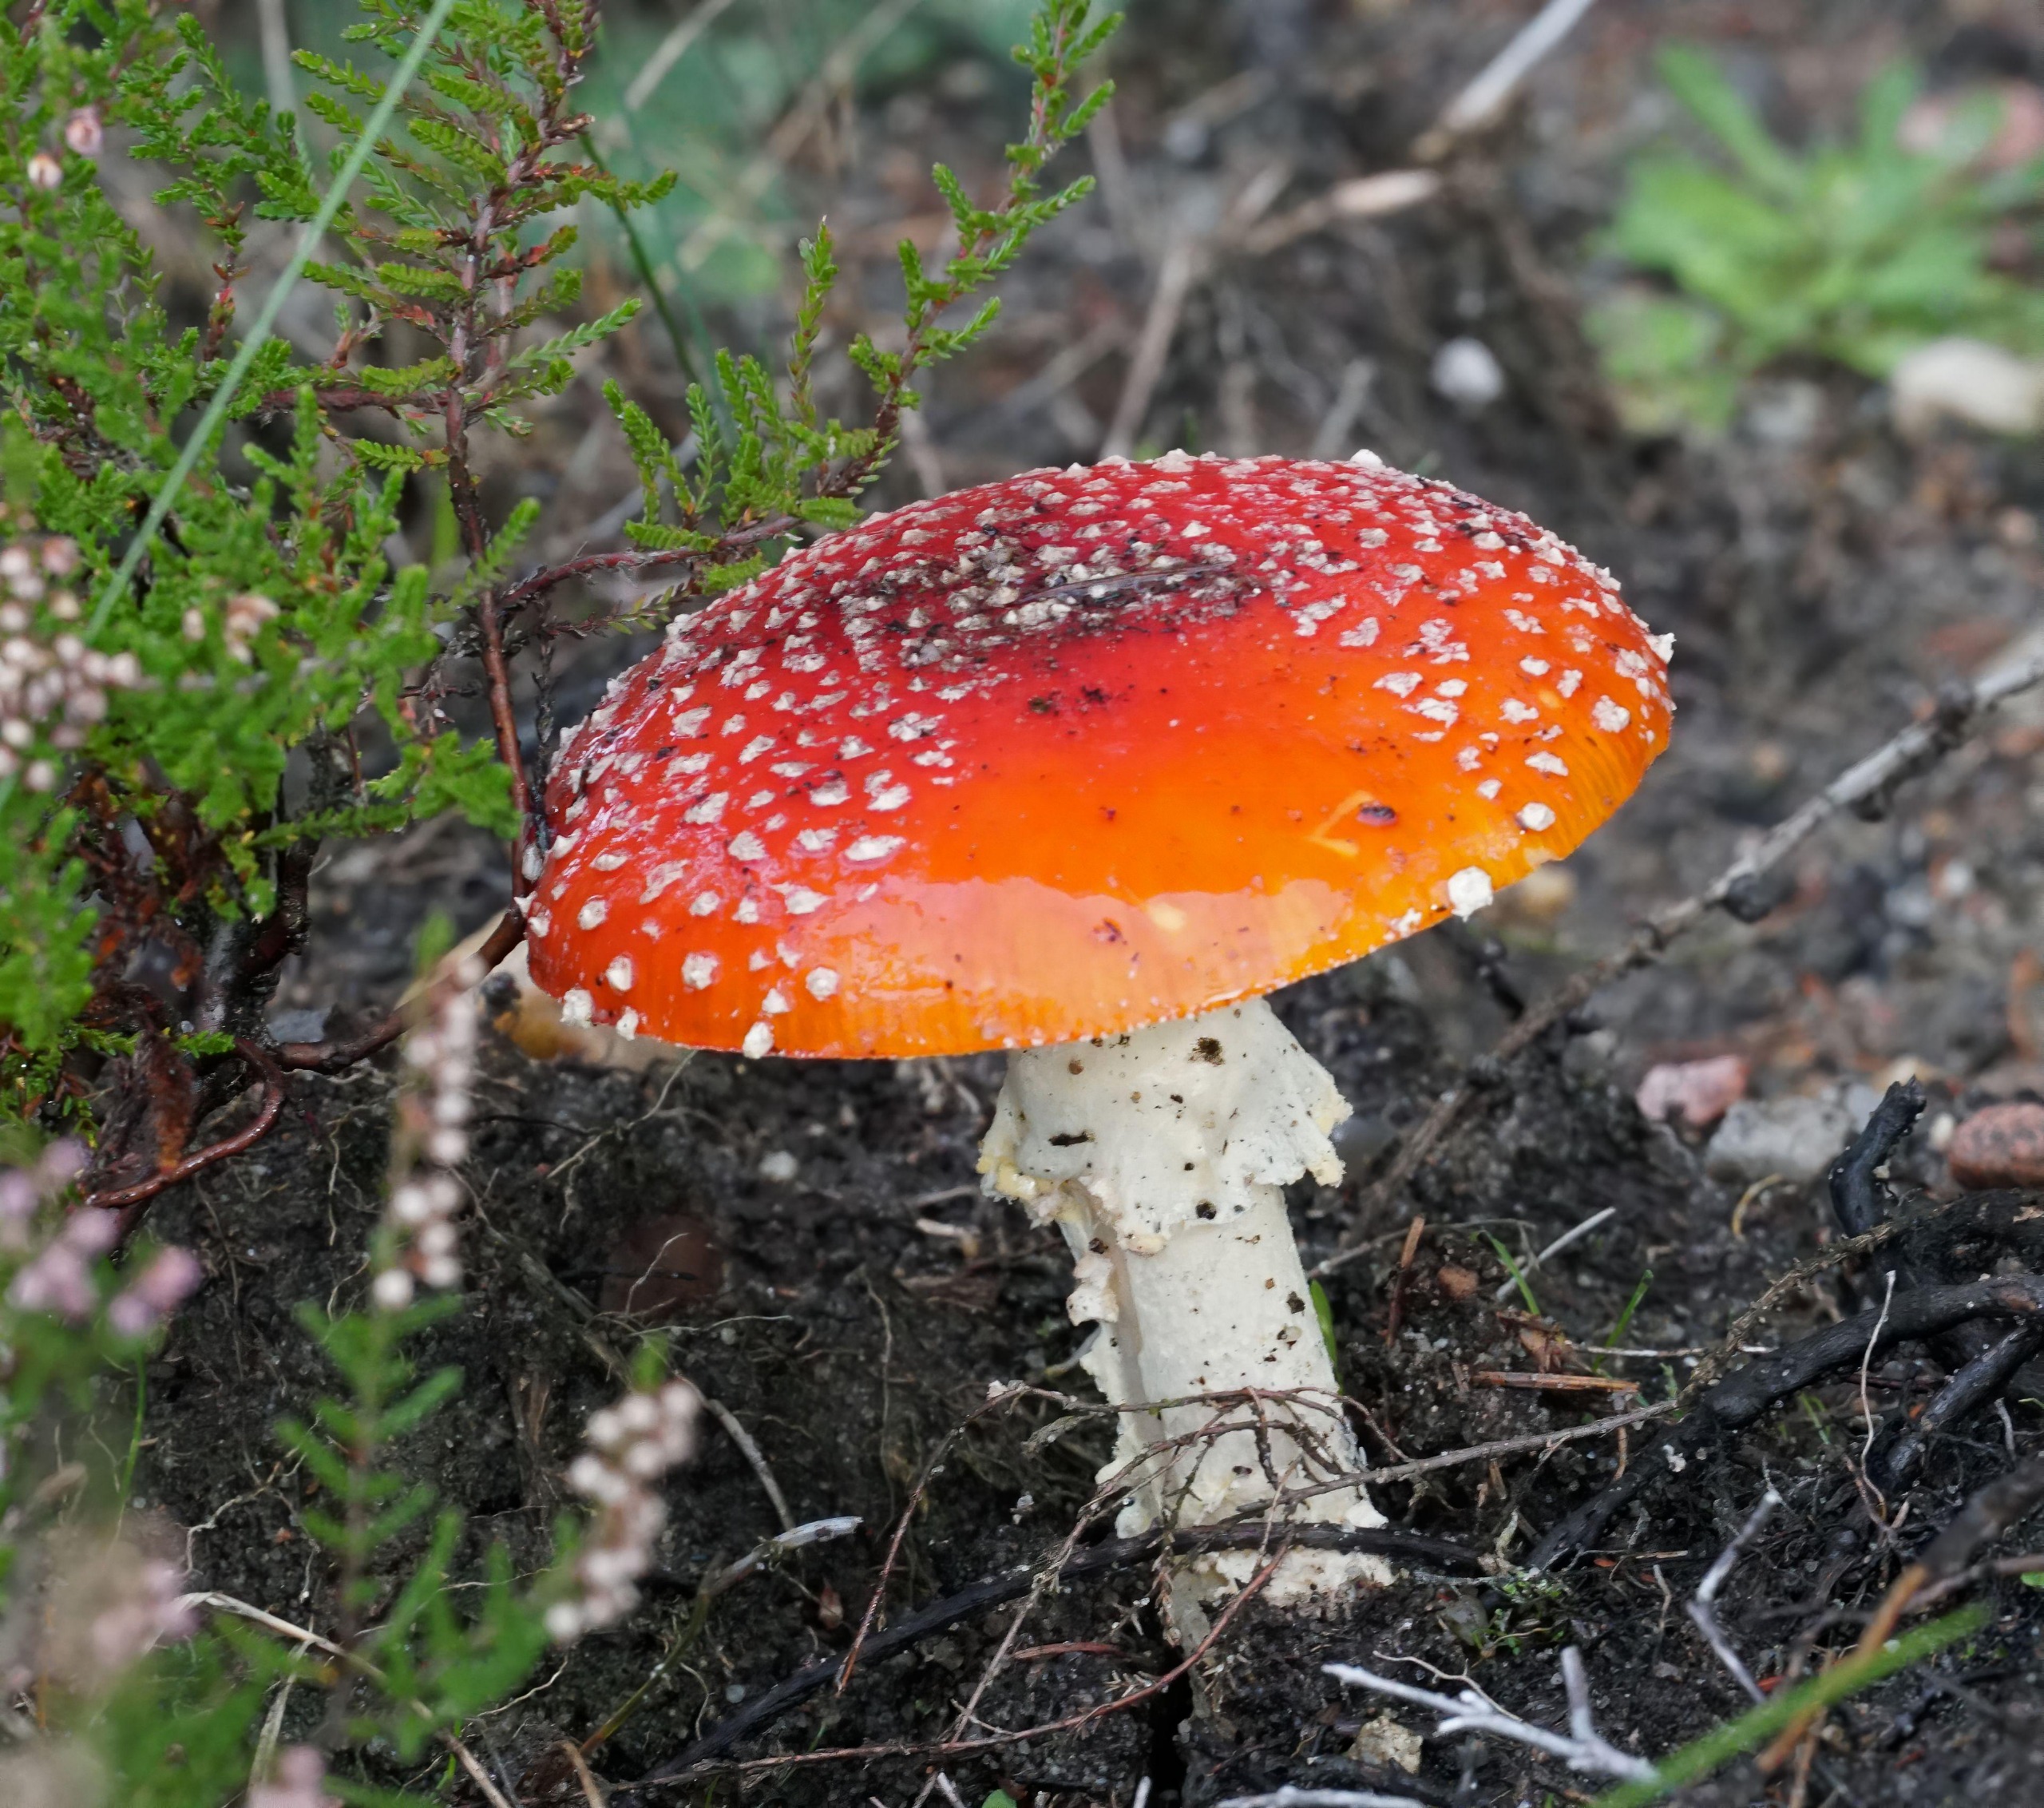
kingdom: Fungi
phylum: Basidiomycota
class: Agaricomycetes
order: Agaricales
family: Amanitaceae
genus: Amanita
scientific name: Amanita muscaria
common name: Rød fluesvamp
